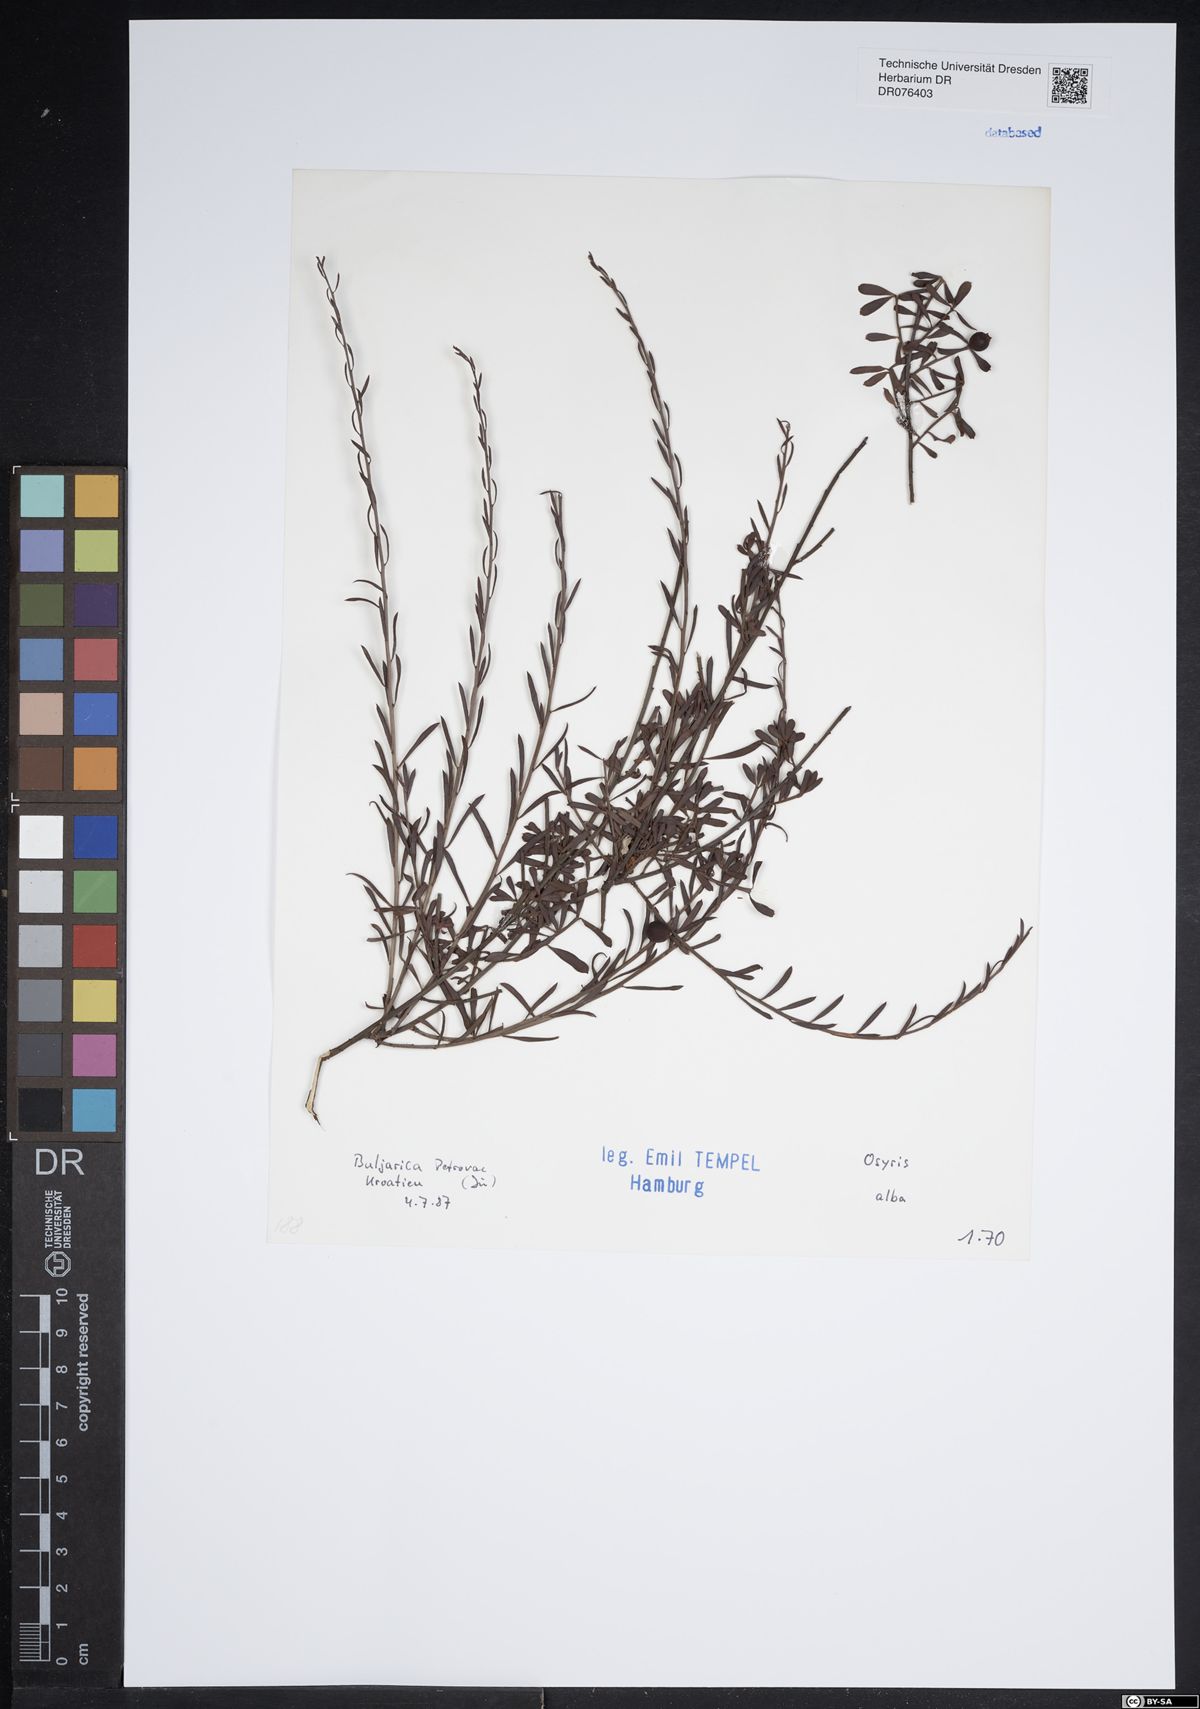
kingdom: Plantae
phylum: Tracheophyta
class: Magnoliopsida
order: Santalales
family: Santalaceae
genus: Osyris
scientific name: Osyris alba
